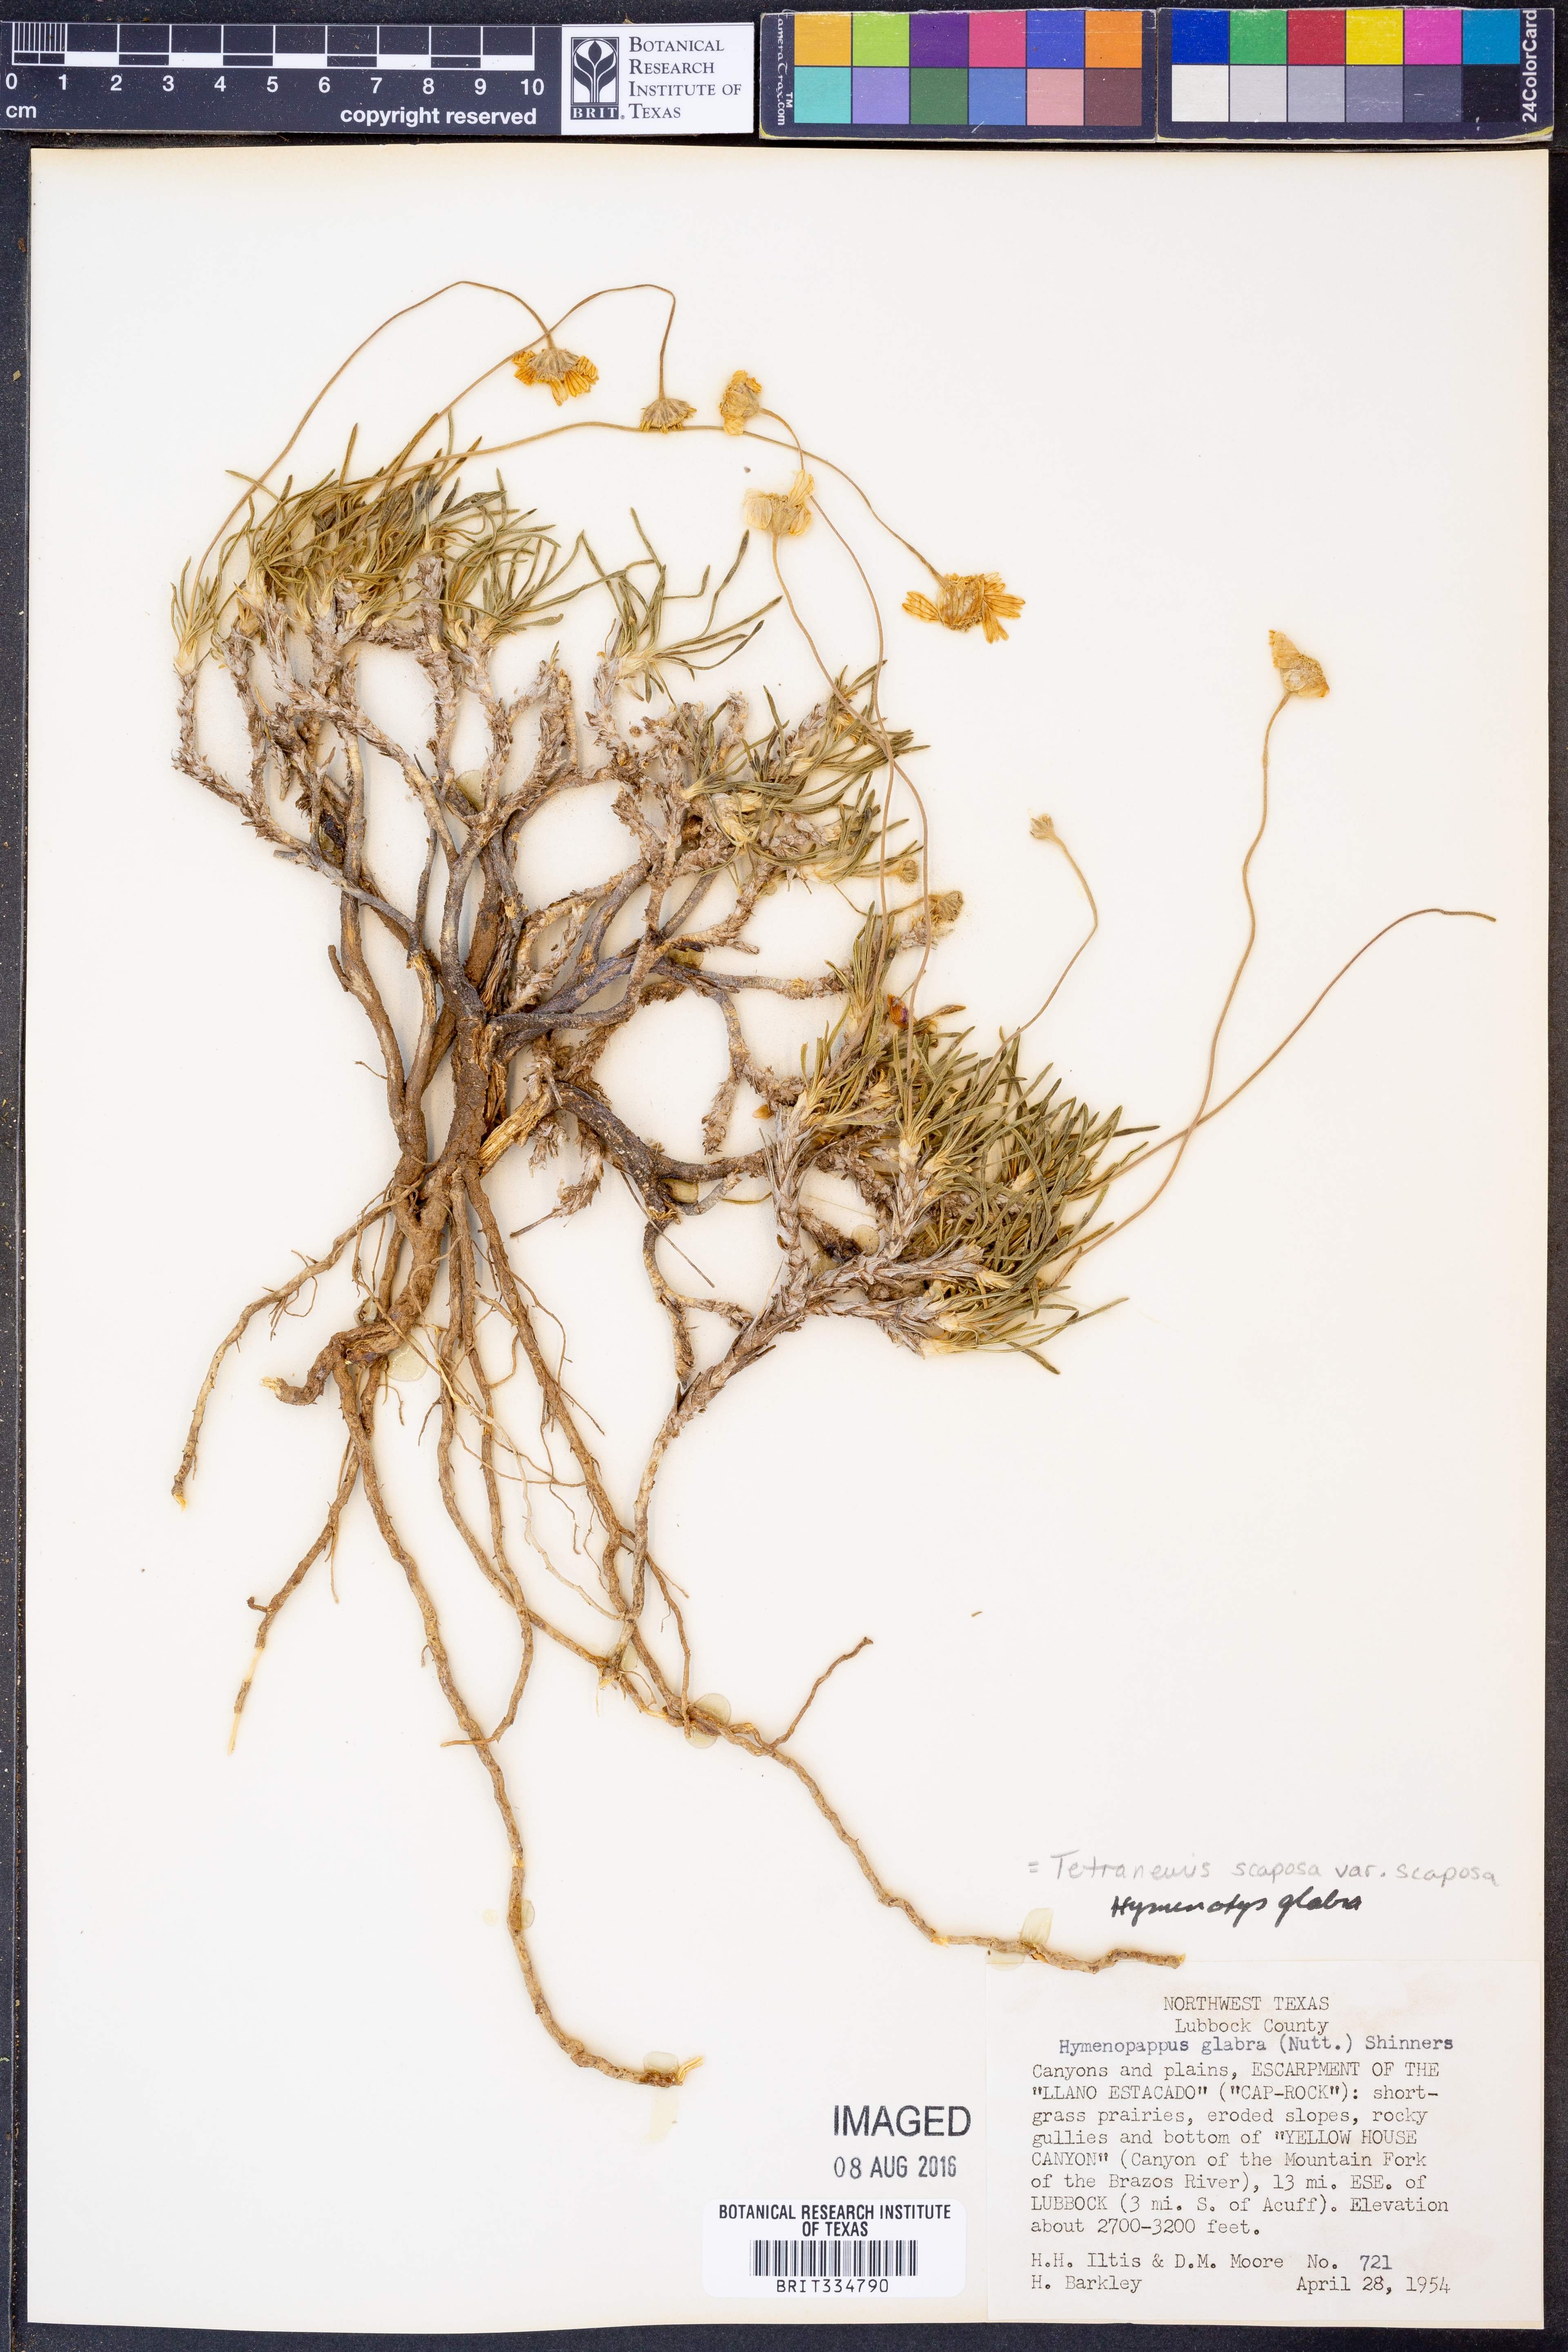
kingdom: Plantae
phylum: Tracheophyta
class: Magnoliopsida
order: Asterales
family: Asteraceae
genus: Tetraneuris
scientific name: Tetraneuris scaposa
